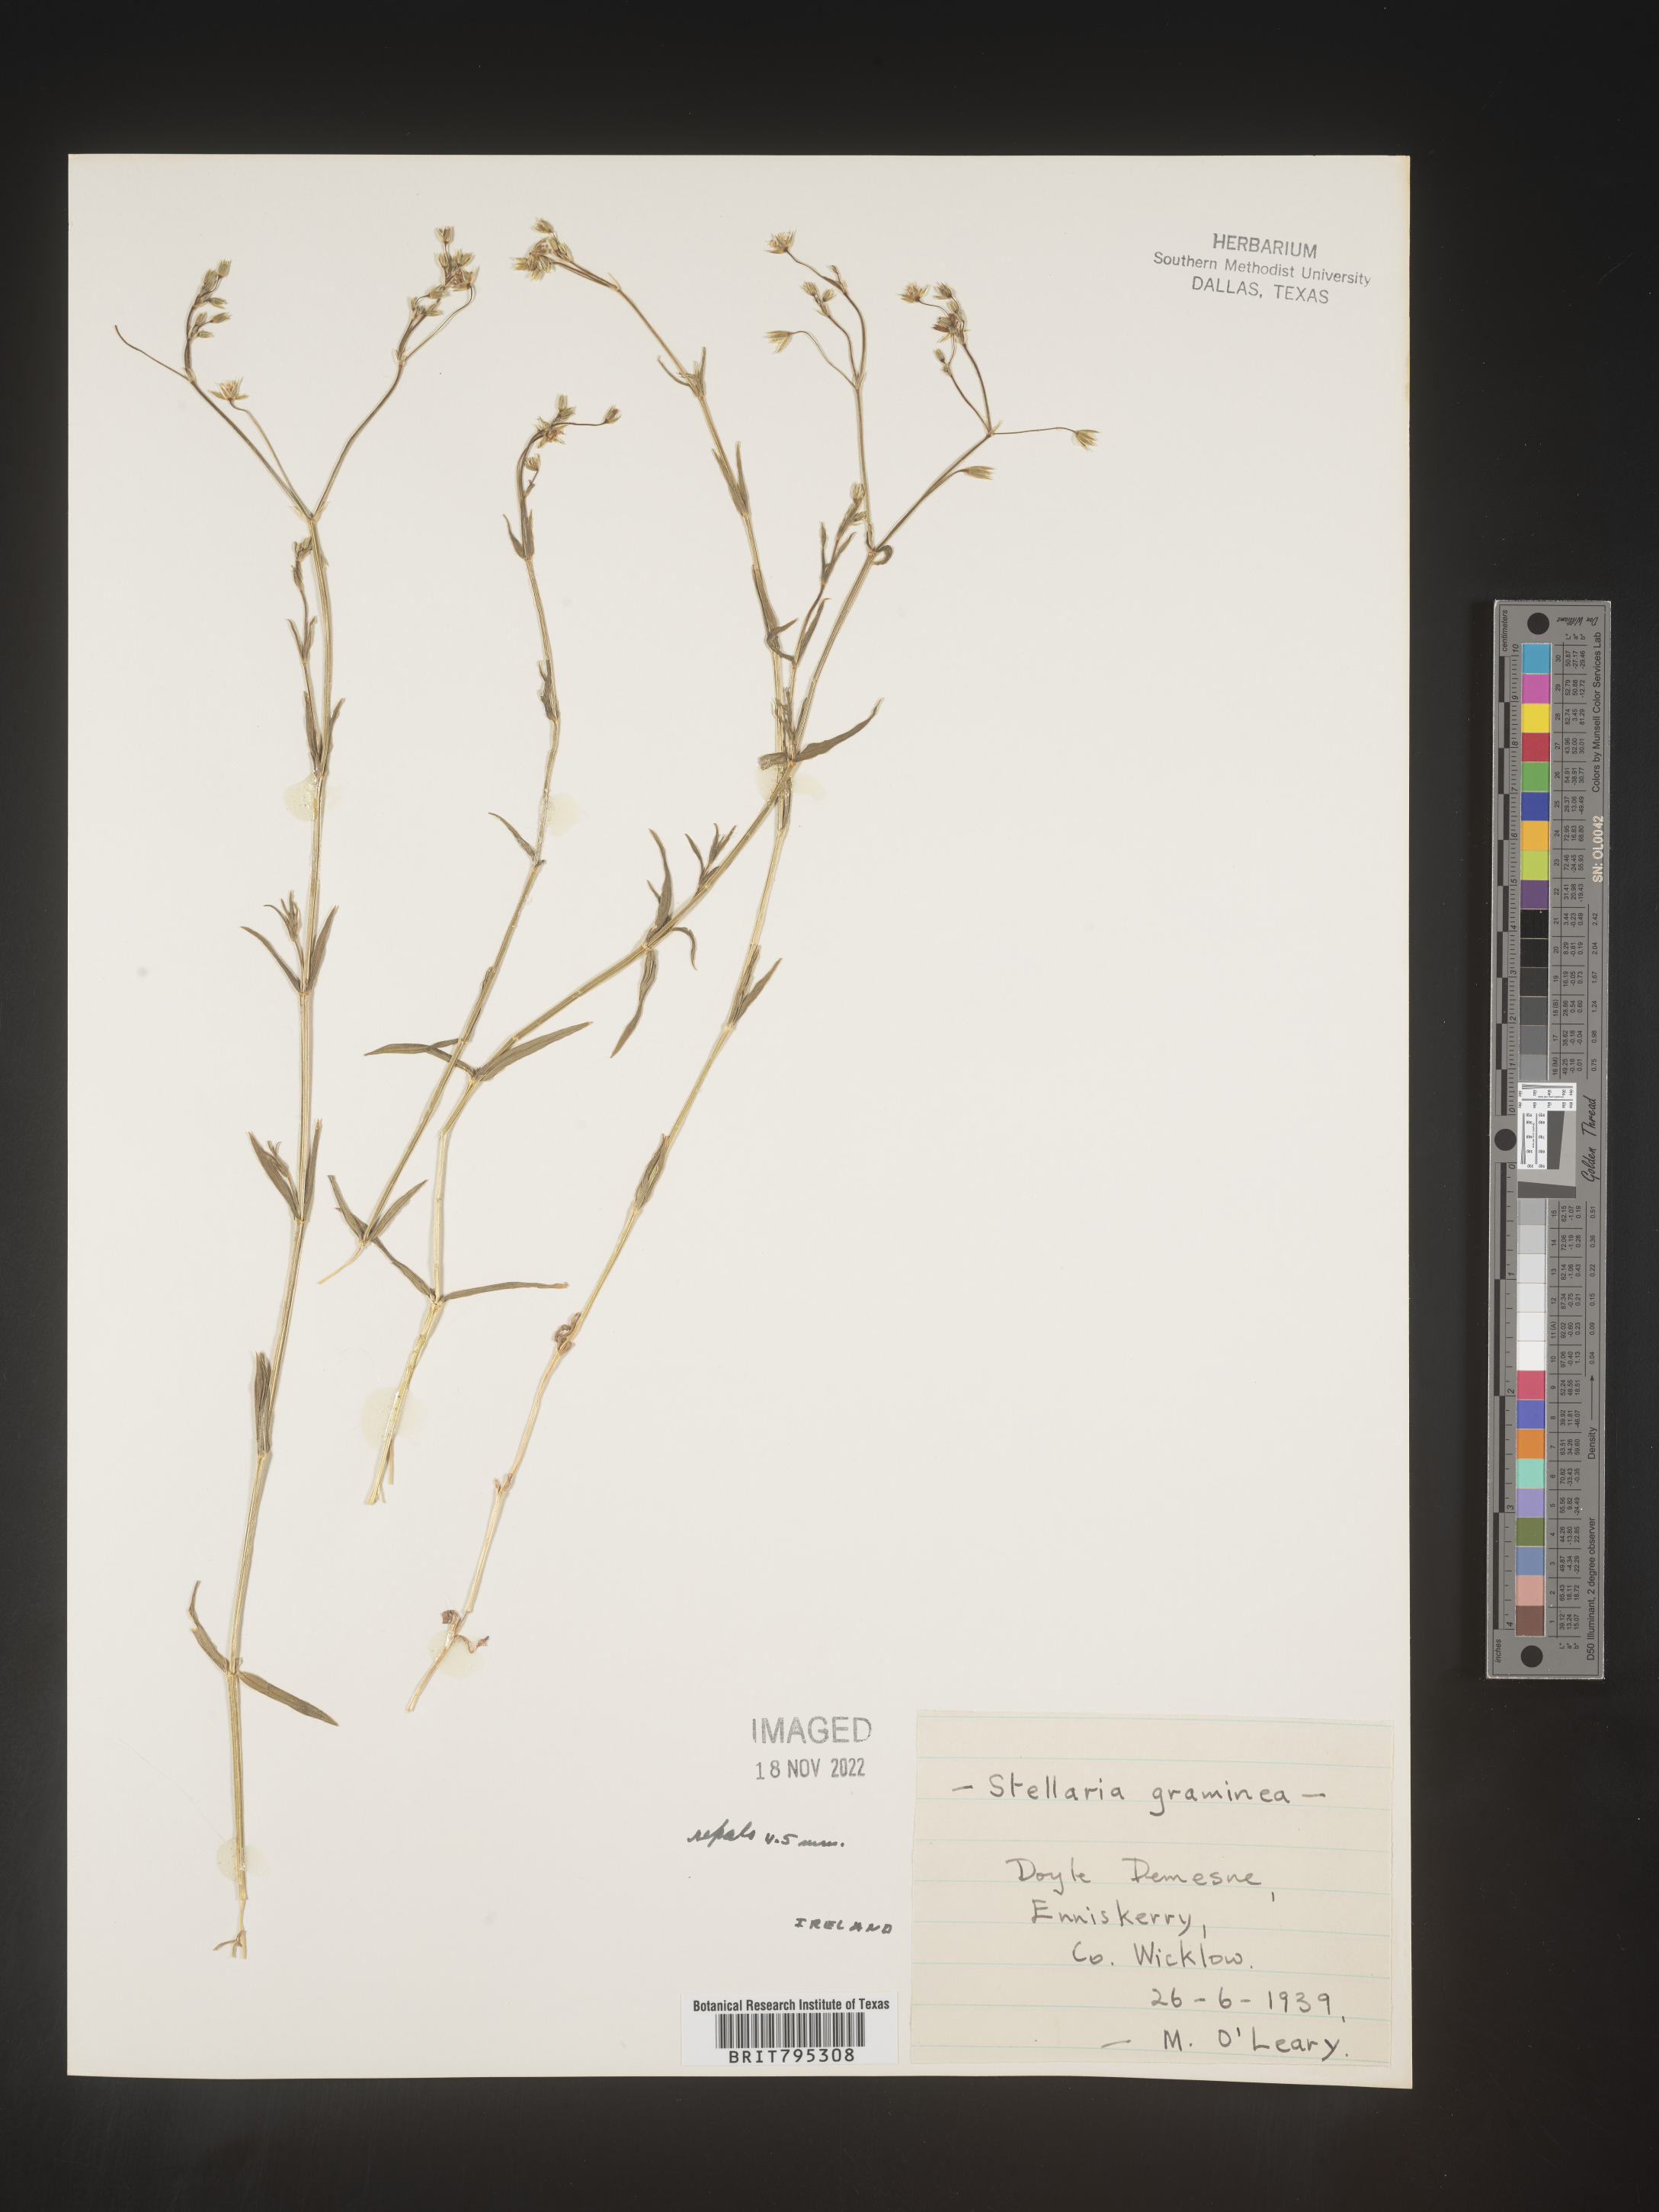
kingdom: Plantae
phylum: Tracheophyta
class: Magnoliopsida
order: Caryophyllales
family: Caryophyllaceae
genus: Stellaria
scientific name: Stellaria
